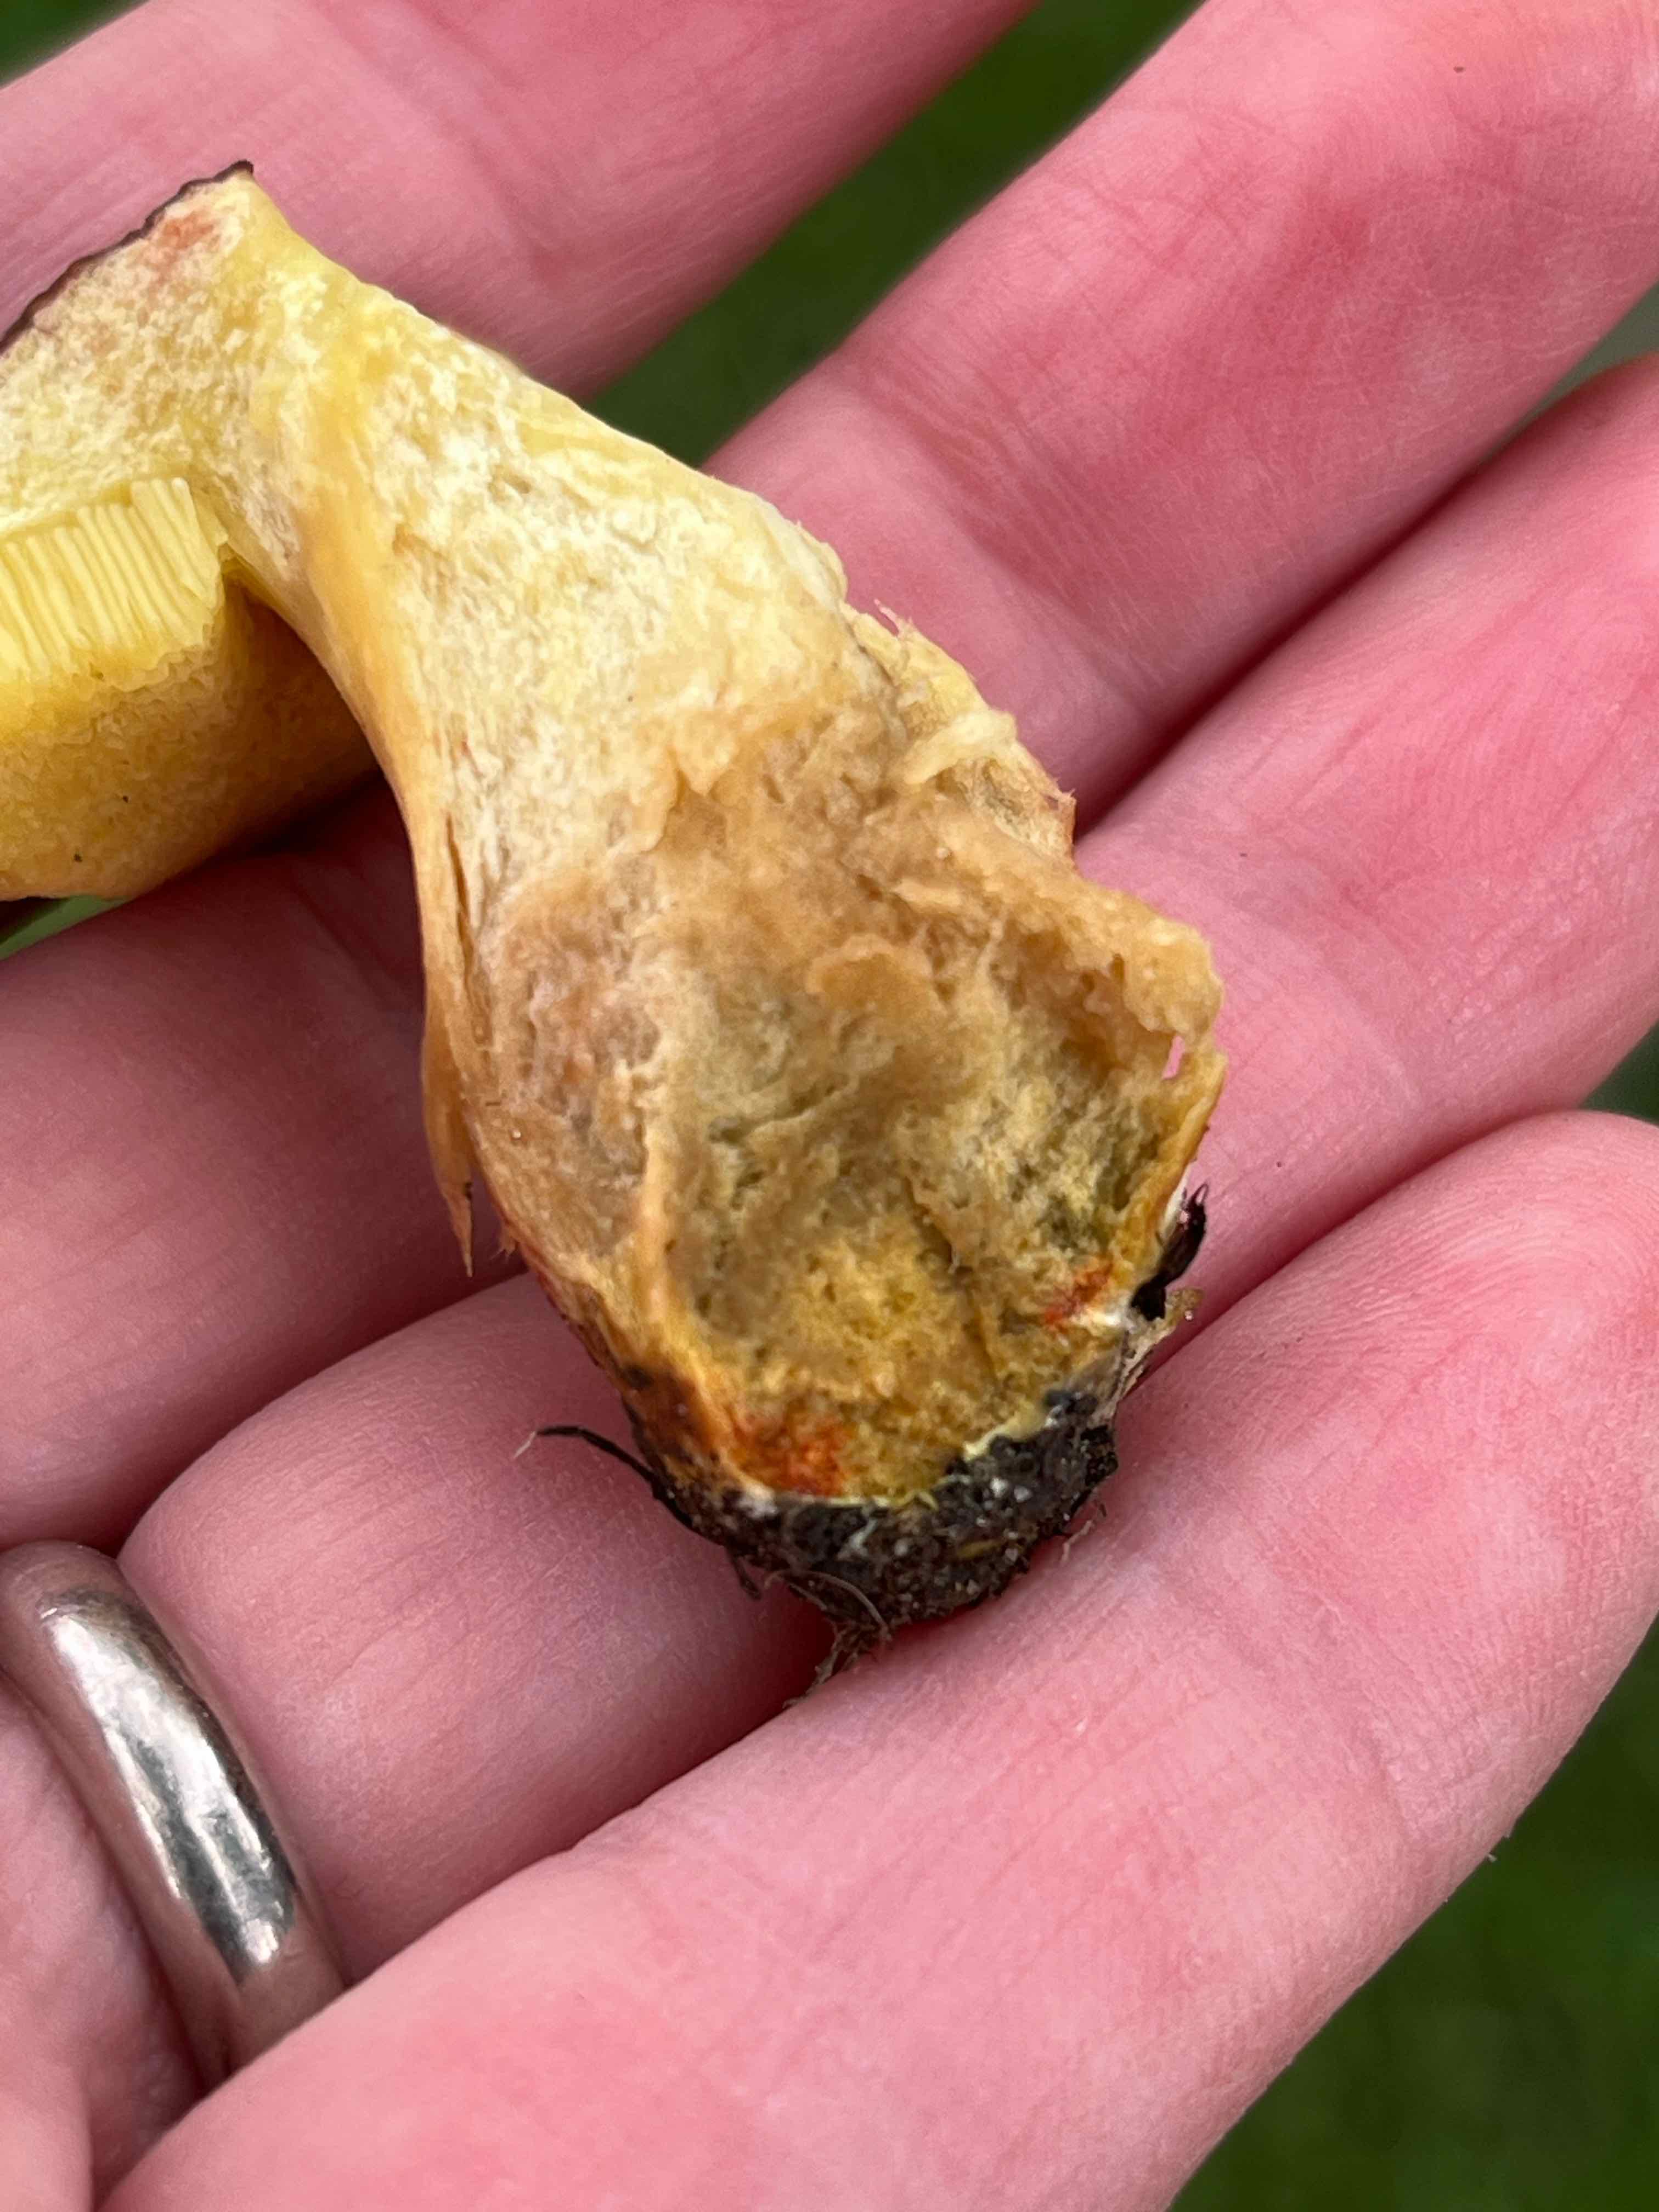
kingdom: Fungi
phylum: Basidiomycota
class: Agaricomycetes
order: Boletales
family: Boletaceae
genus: Hortiboletus
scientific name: Hortiboletus engelii
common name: fersken-rørhat
